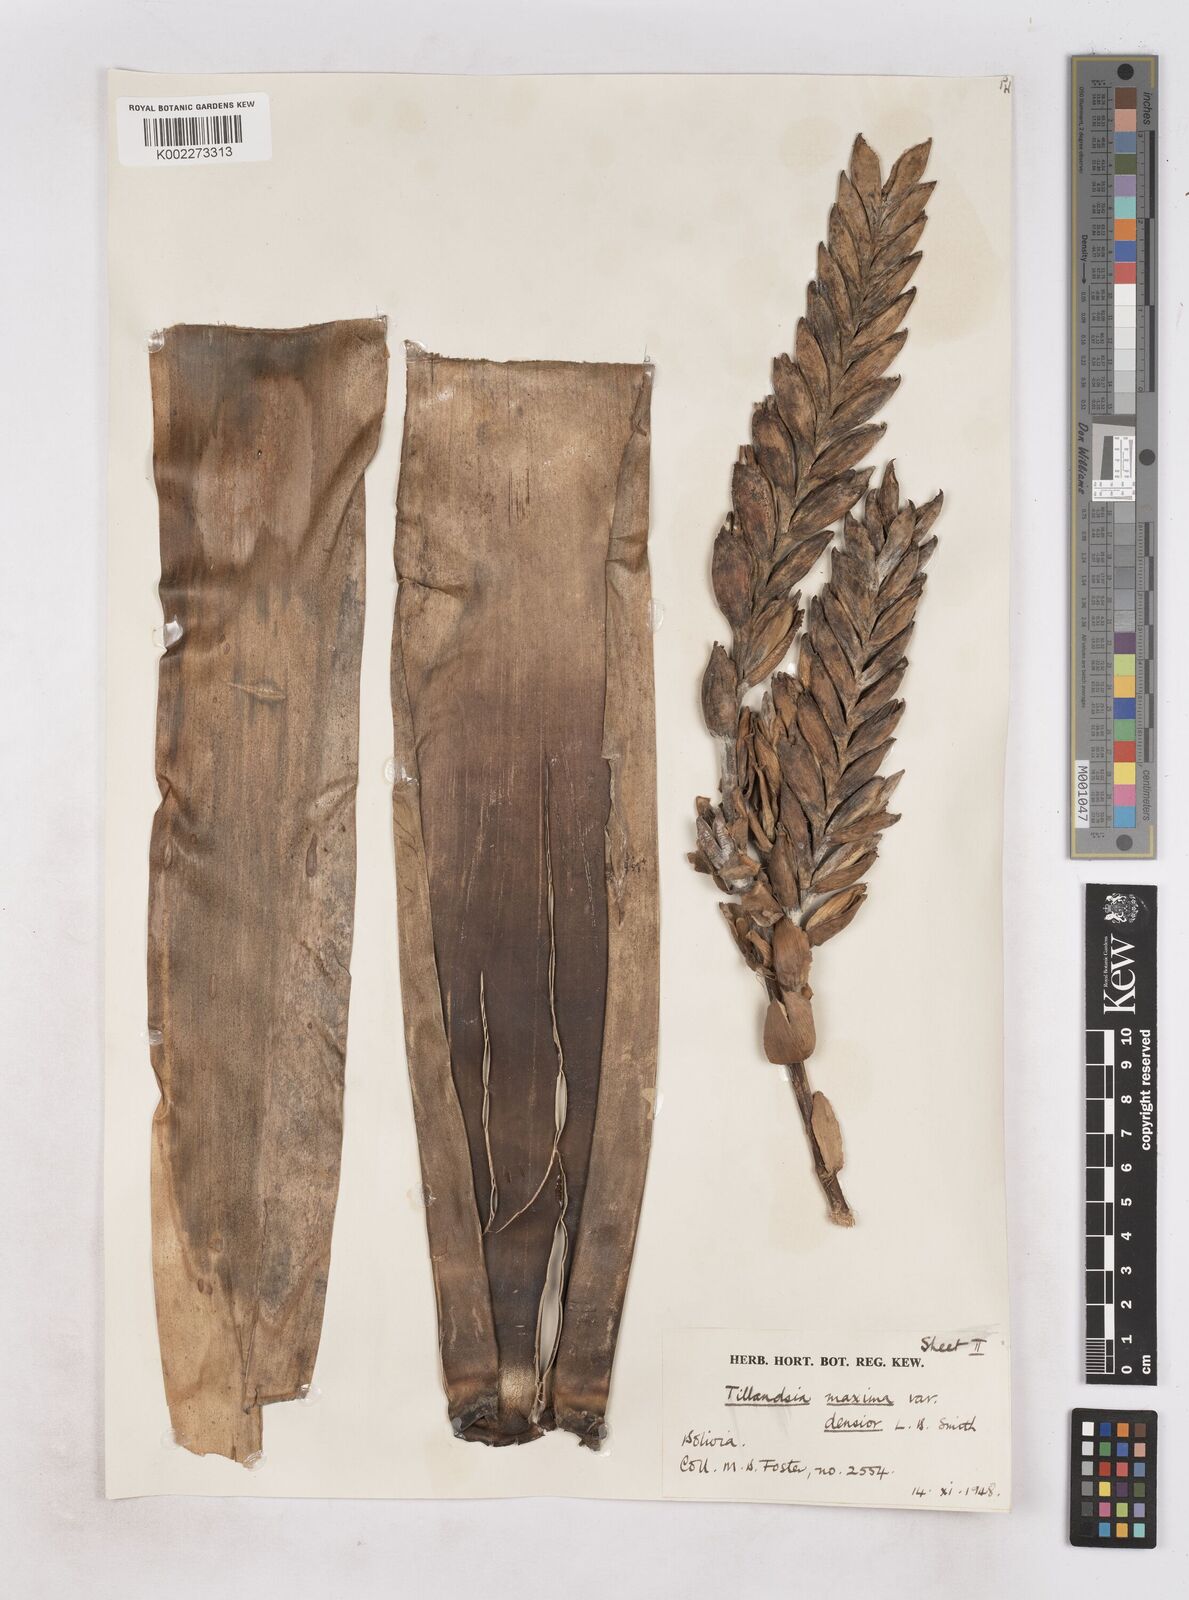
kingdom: Plantae
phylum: Tracheophyta
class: Liliopsida
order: Poales
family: Bromeliaceae
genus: Tillandsia
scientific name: Tillandsia
